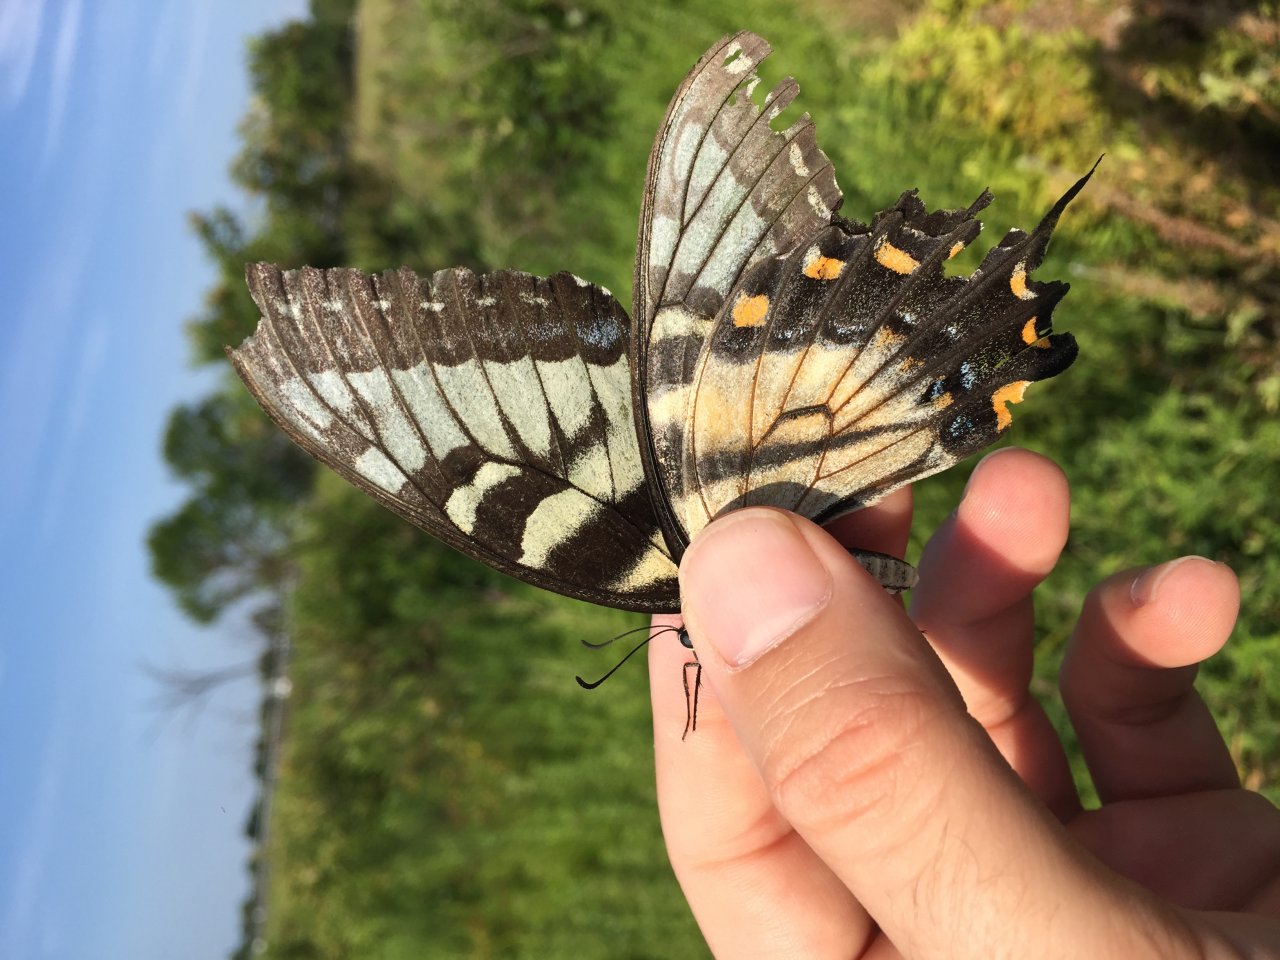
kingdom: Animalia
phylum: Arthropoda
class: Insecta
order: Lepidoptera
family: Papilionidae
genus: Pterourus
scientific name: Pterourus glaucus
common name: Eastern Tiger Swallowtail
